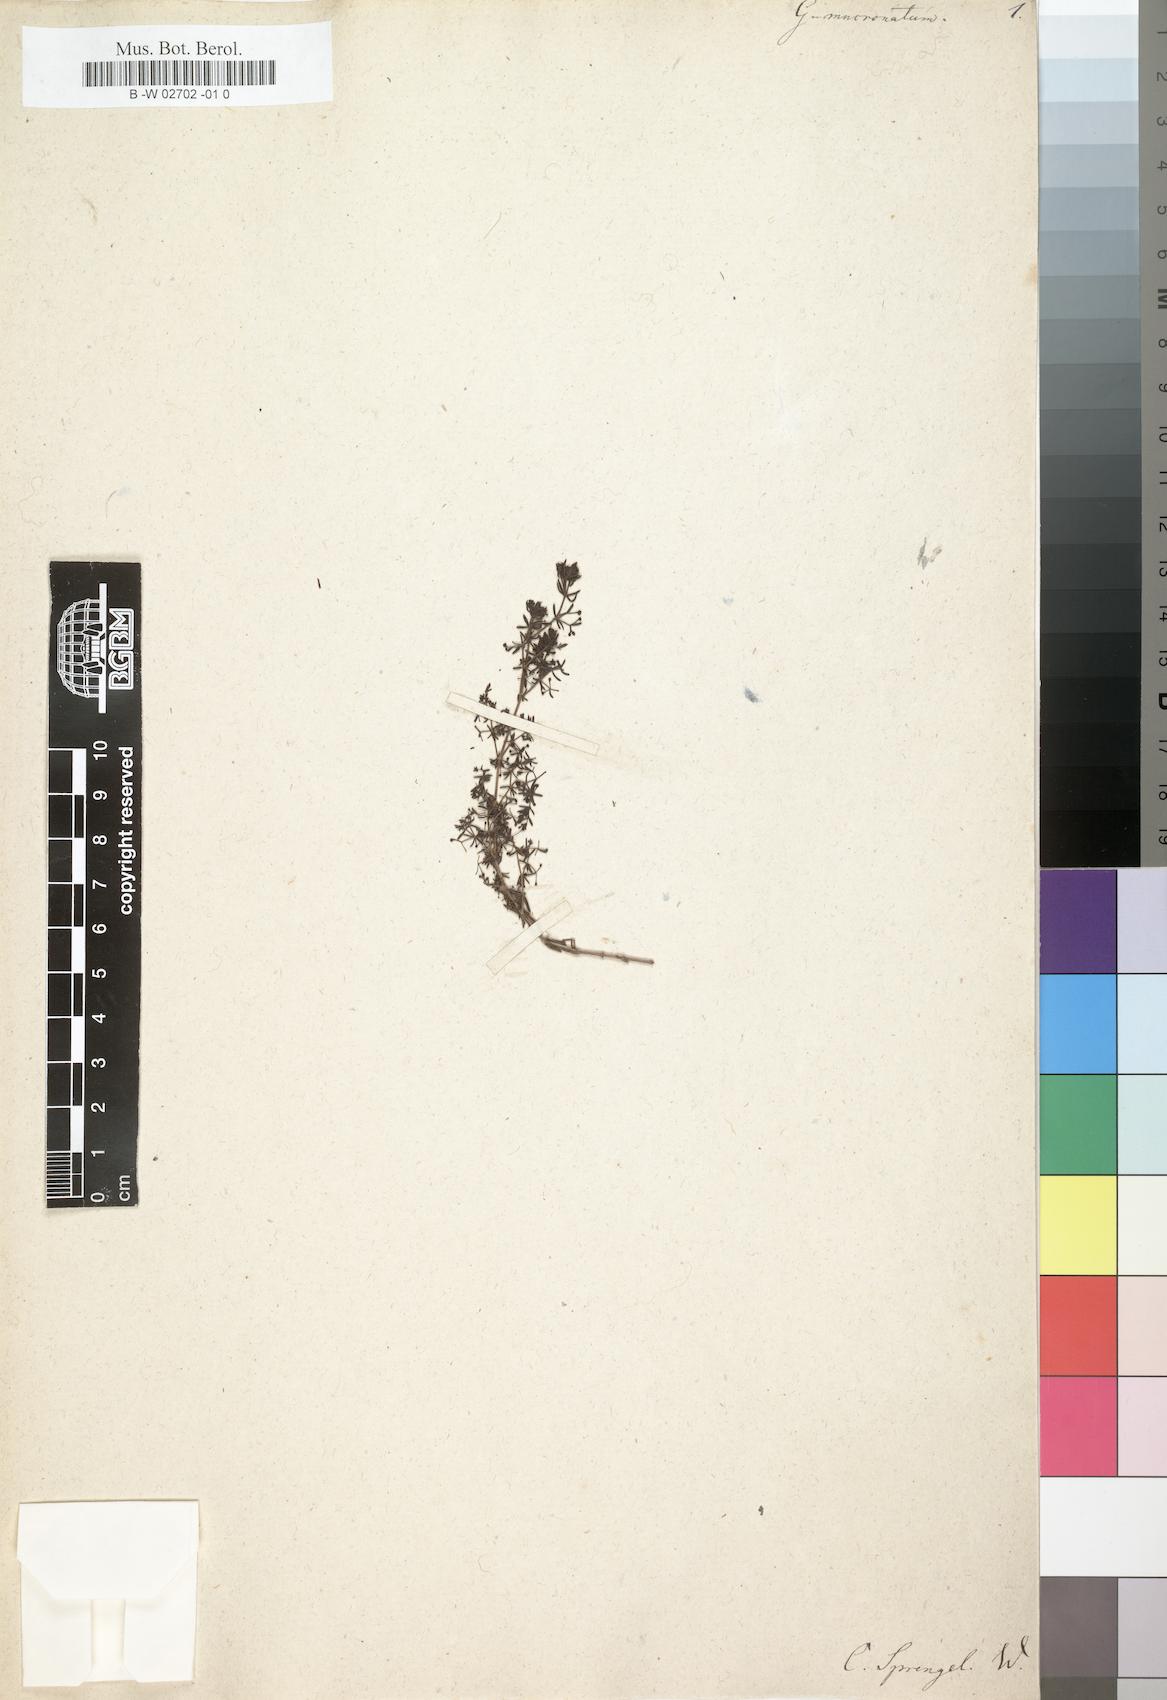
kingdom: Plantae
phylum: Tracheophyta
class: Magnoliopsida
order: Gentianales
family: Rubiaceae
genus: Galium
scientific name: Galium
